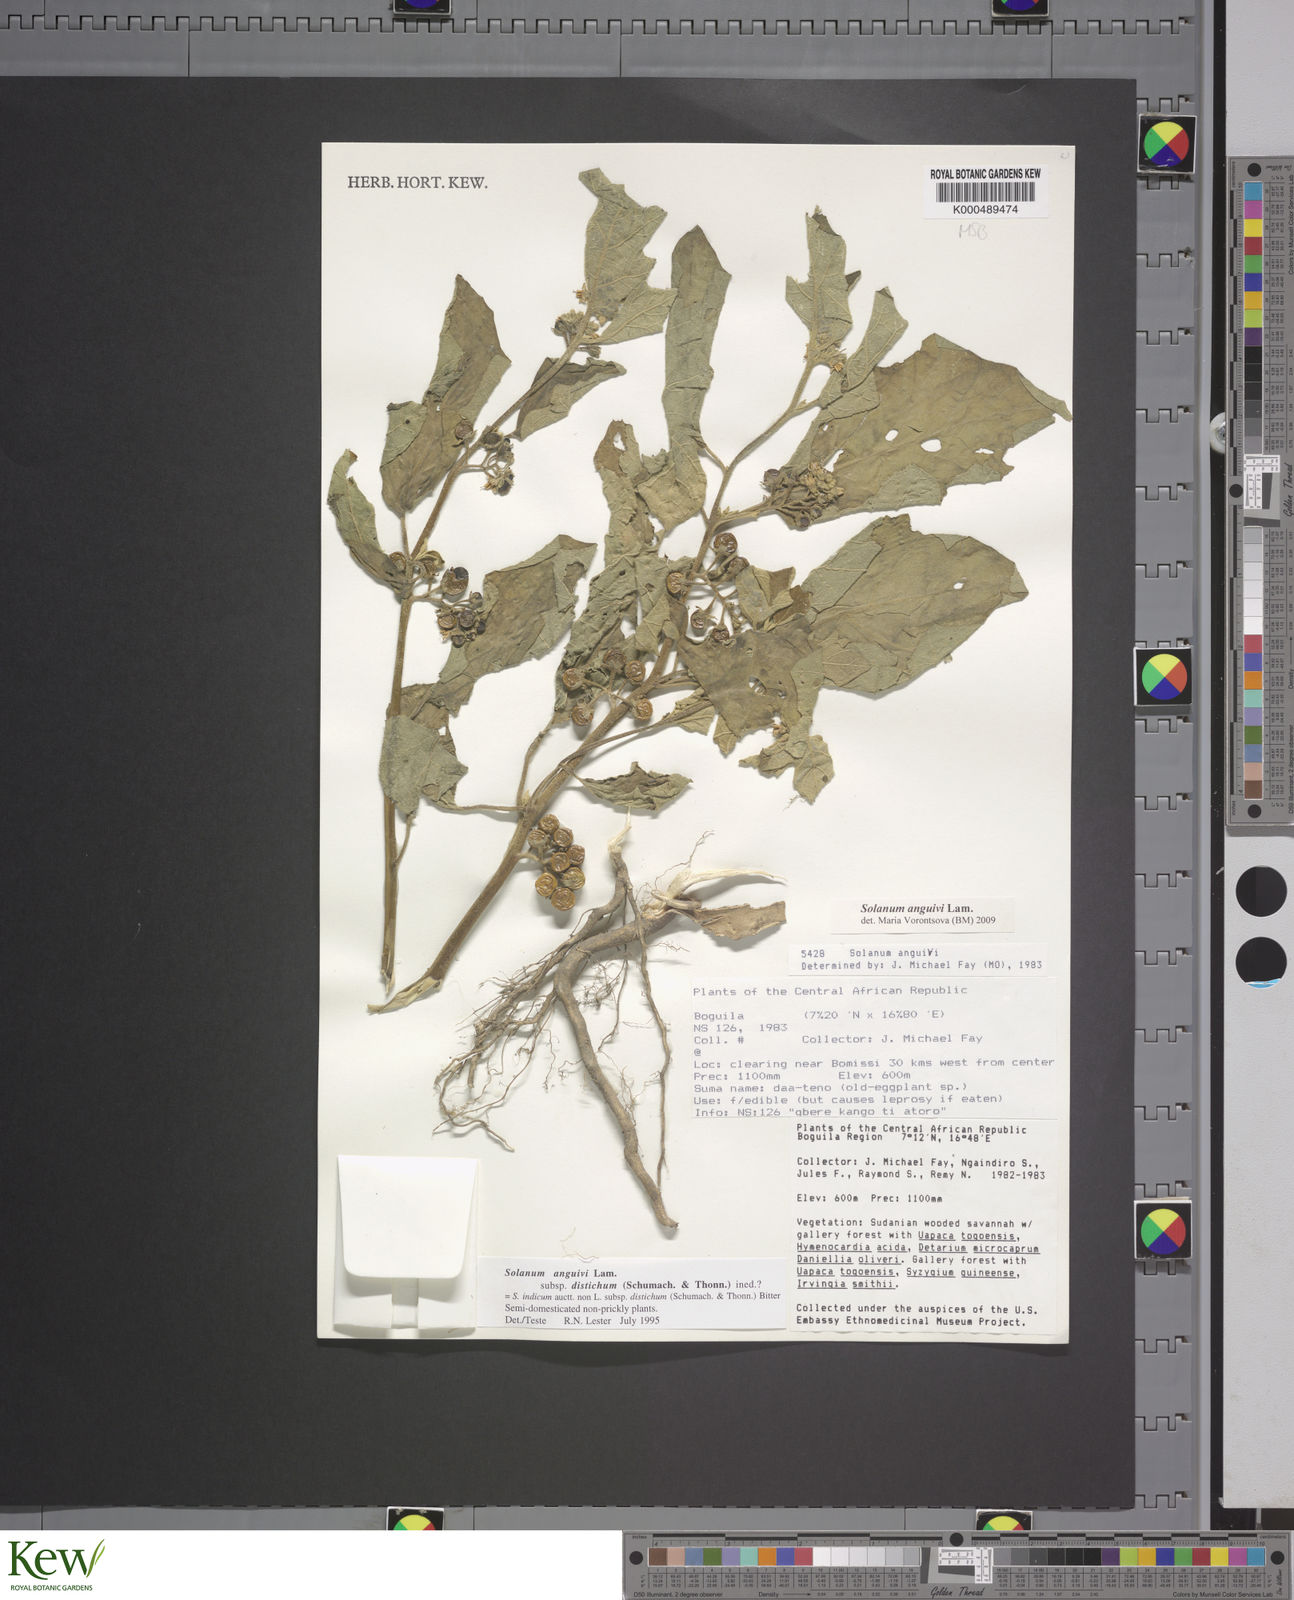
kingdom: Plantae
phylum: Tracheophyta
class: Magnoliopsida
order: Solanales
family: Solanaceae
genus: Solanum
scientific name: Solanum anguivi
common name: Forest bitterberry
